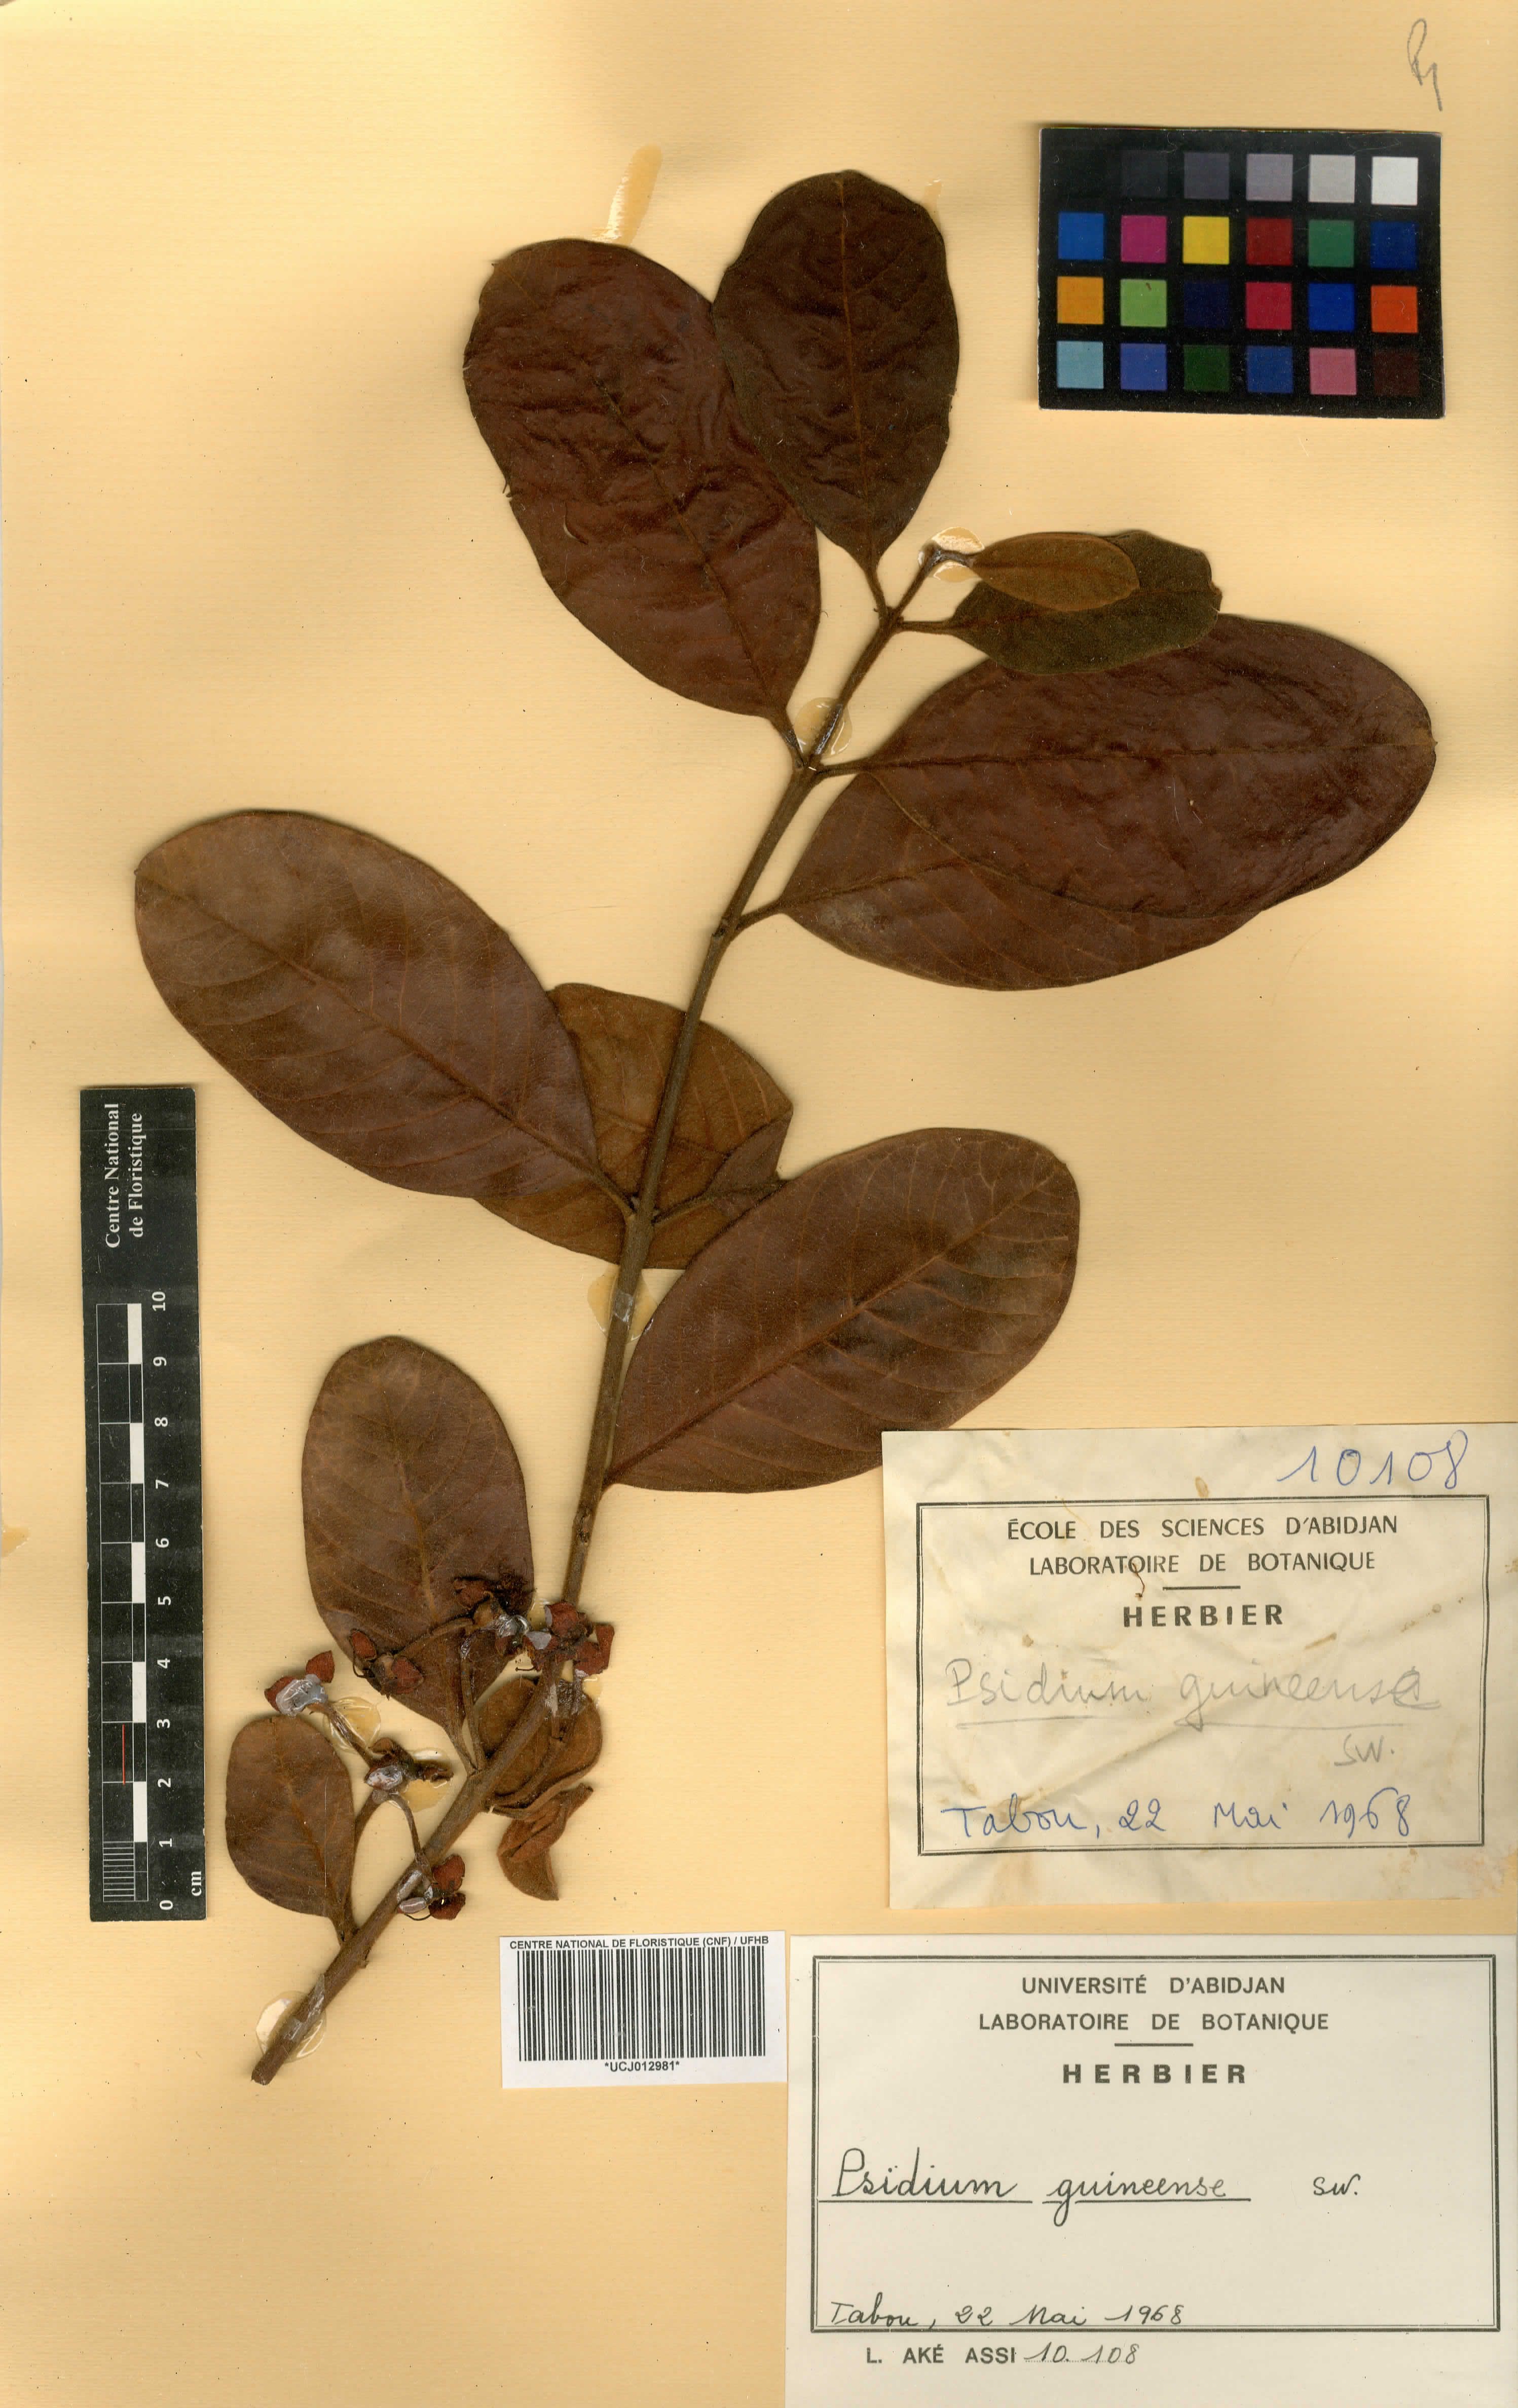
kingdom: Plantae
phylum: Tracheophyta
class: Magnoliopsida
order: Myrtales
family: Myrtaceae
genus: Psidium
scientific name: Psidium guineense
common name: Brazilian guava
